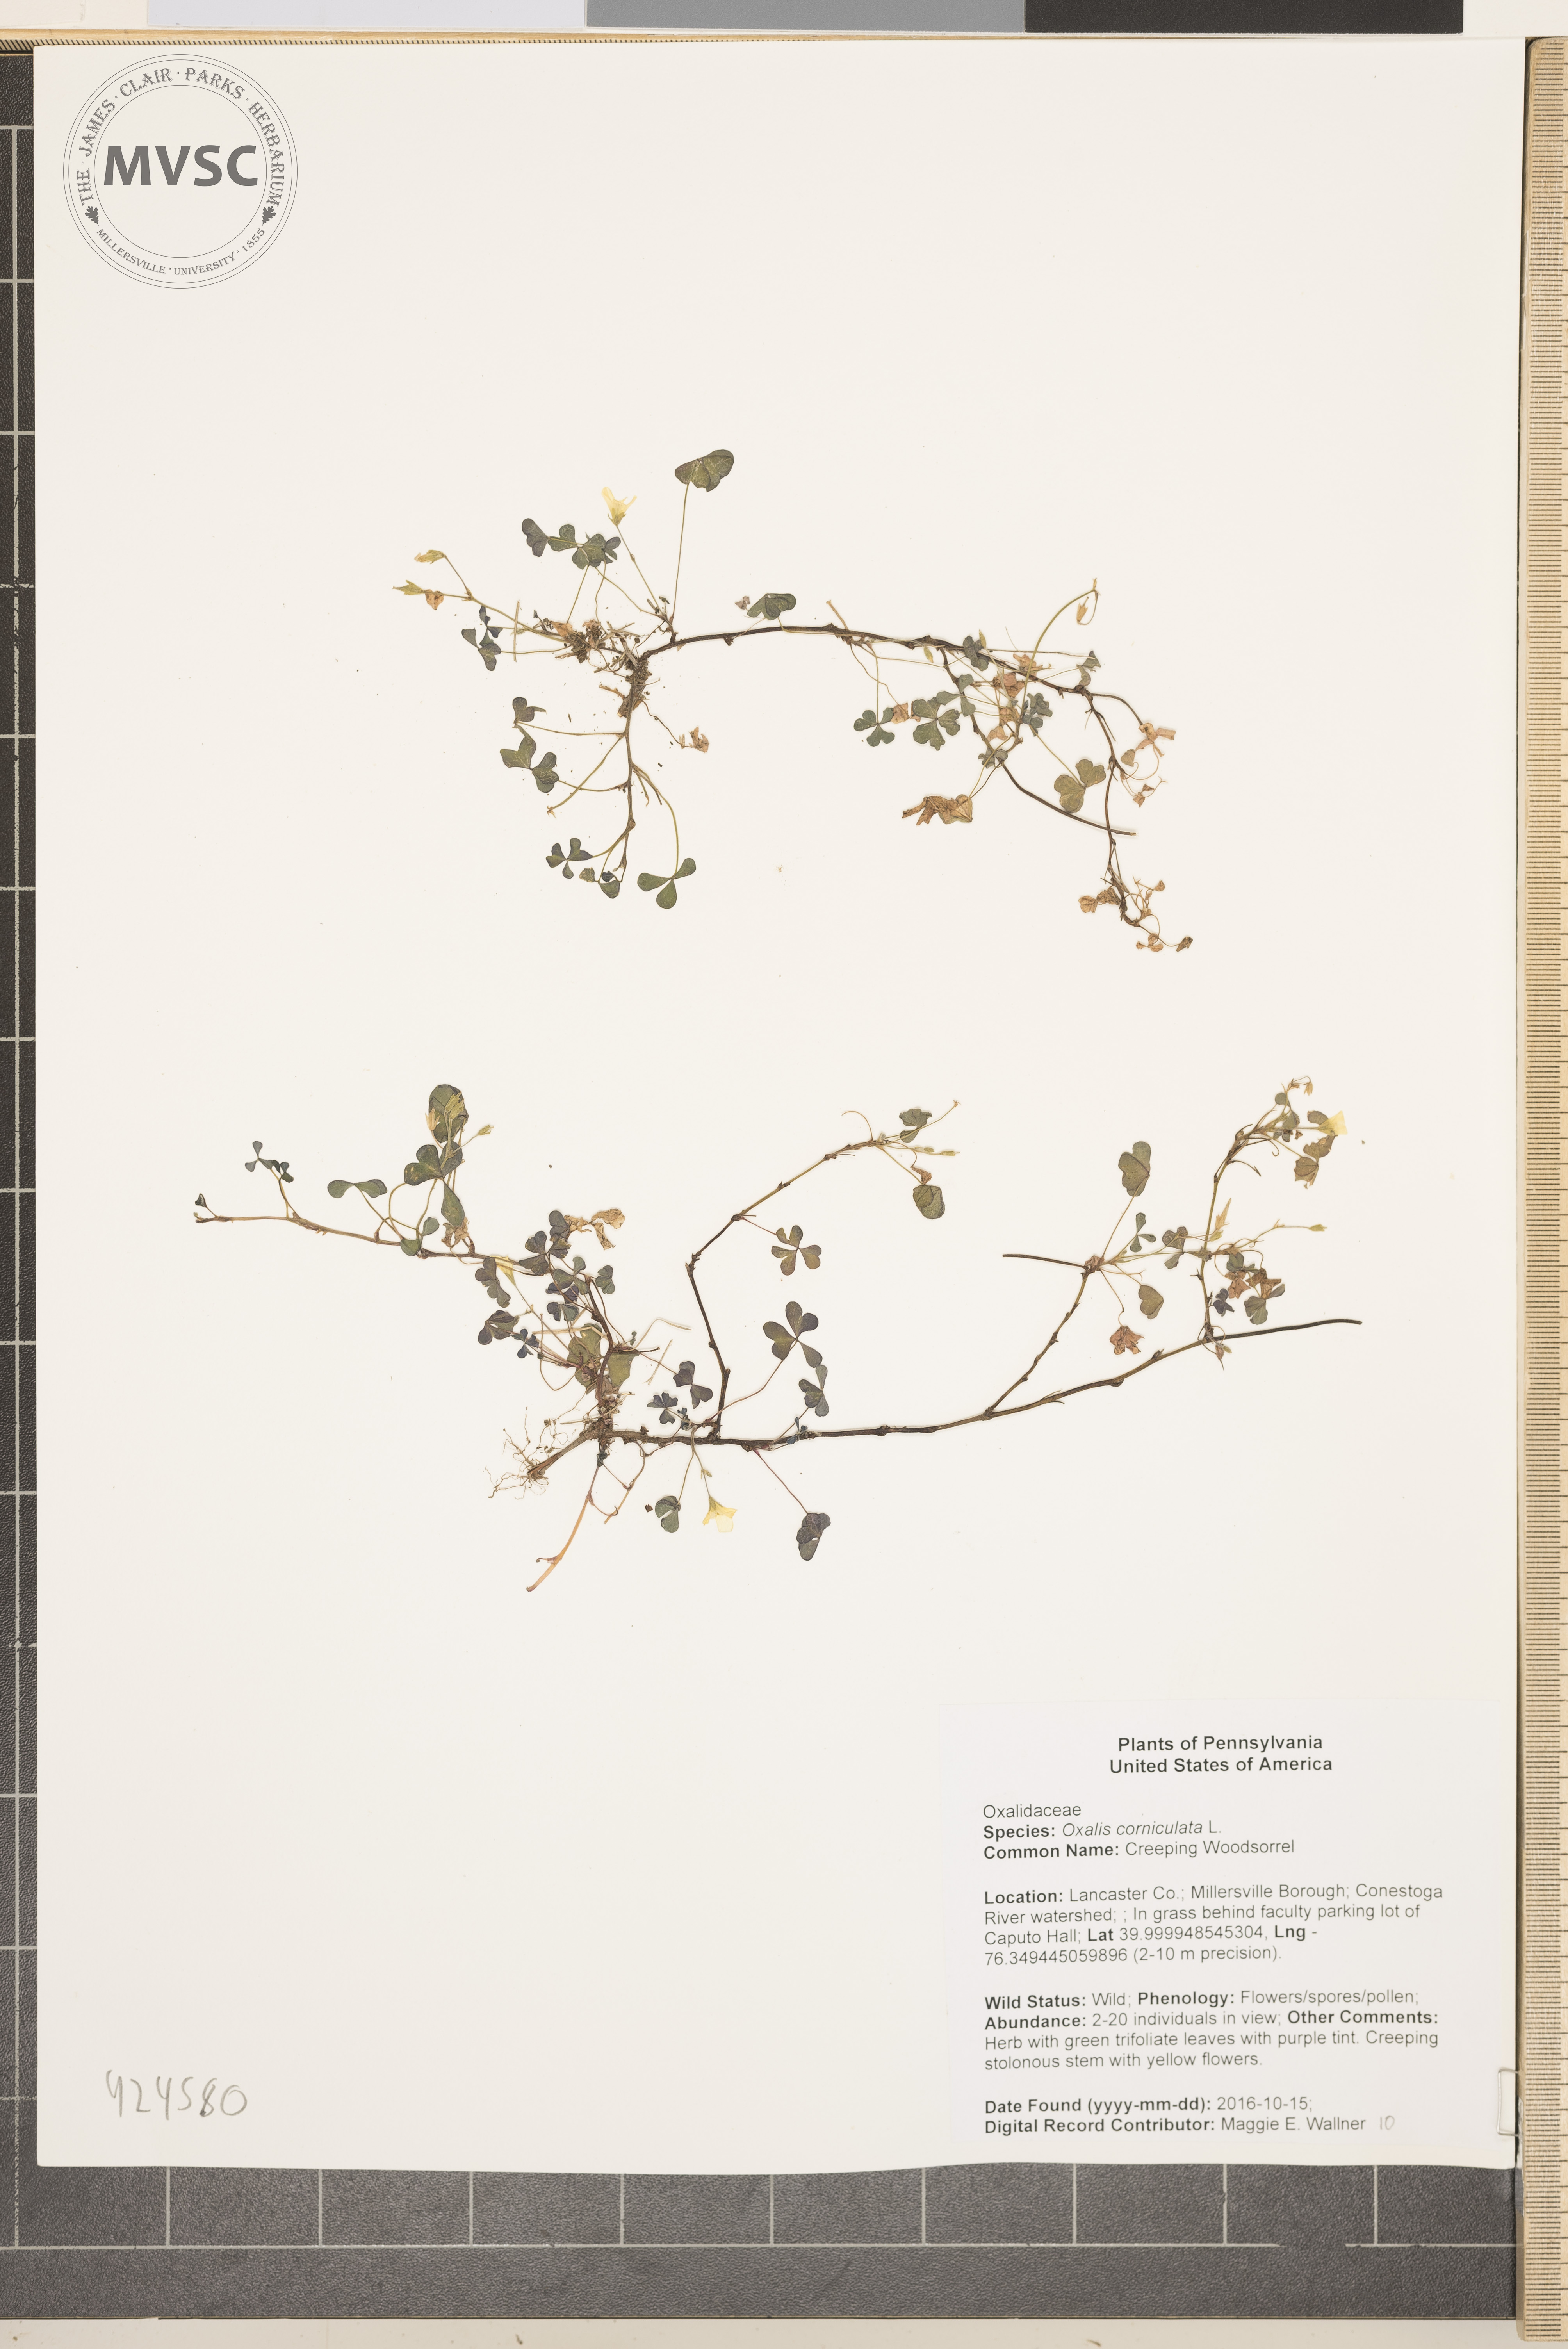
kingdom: Plantae
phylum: Tracheophyta
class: Magnoliopsida
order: Oxalidales
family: Oxalidaceae
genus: Oxalis
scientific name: Oxalis corniculata
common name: Creeping Woodsorrel
